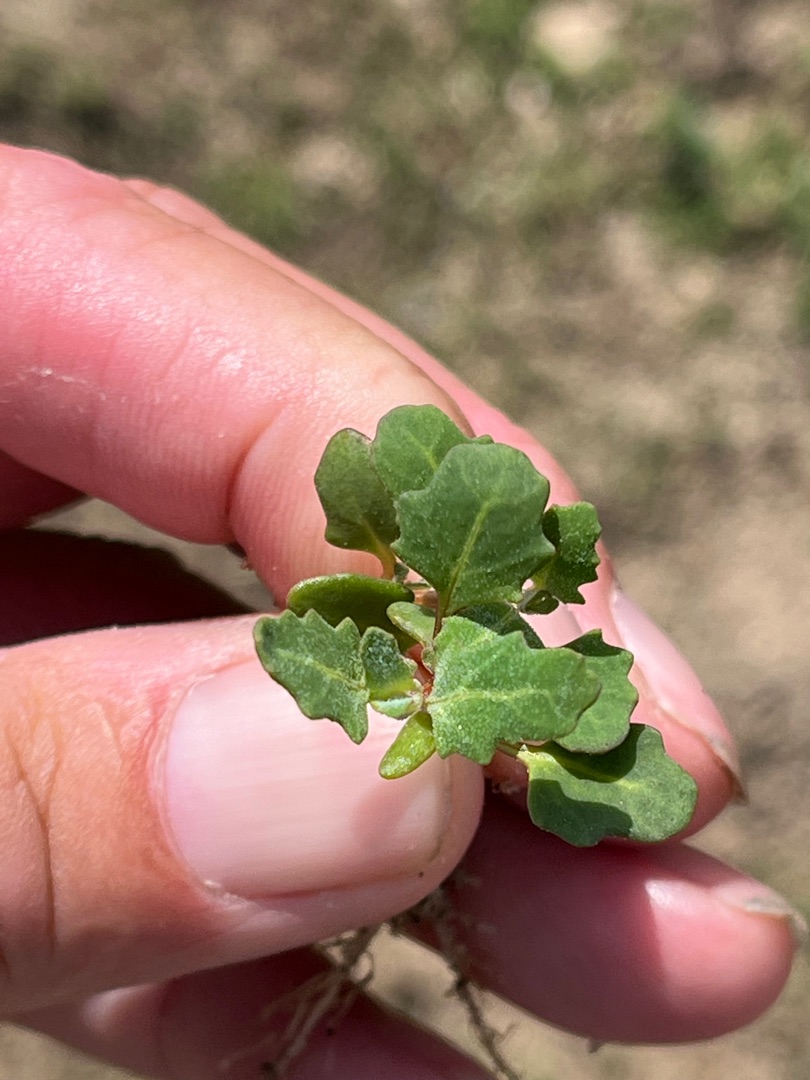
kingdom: Plantae
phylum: Tracheophyta
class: Magnoliopsida
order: Caryophyllales
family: Amaranthaceae
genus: Oxybasis
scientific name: Oxybasis glauca
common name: Blågrøn gåsefod
